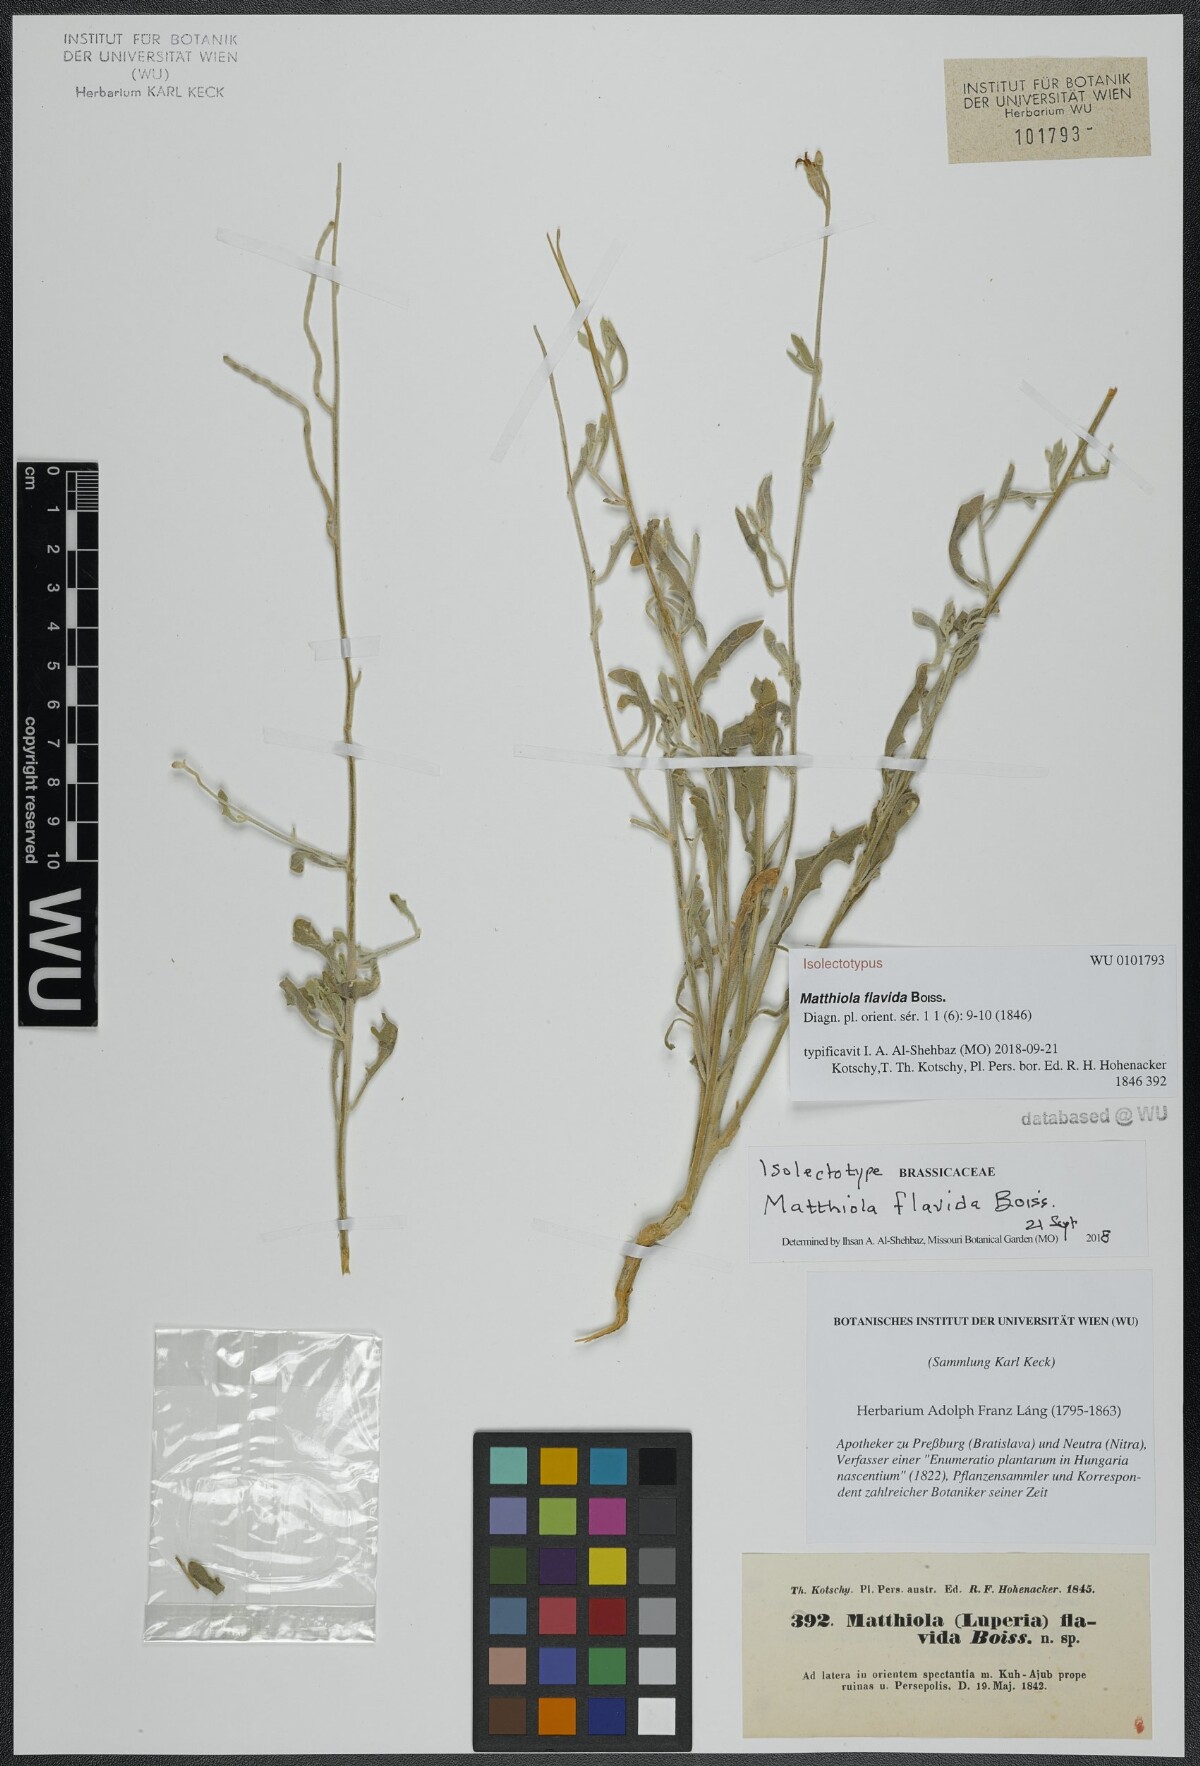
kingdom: Plantae
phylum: Tracheophyta
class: Magnoliopsida
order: Brassicales
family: Brassicaceae
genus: Matthiola
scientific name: Matthiola flavida
